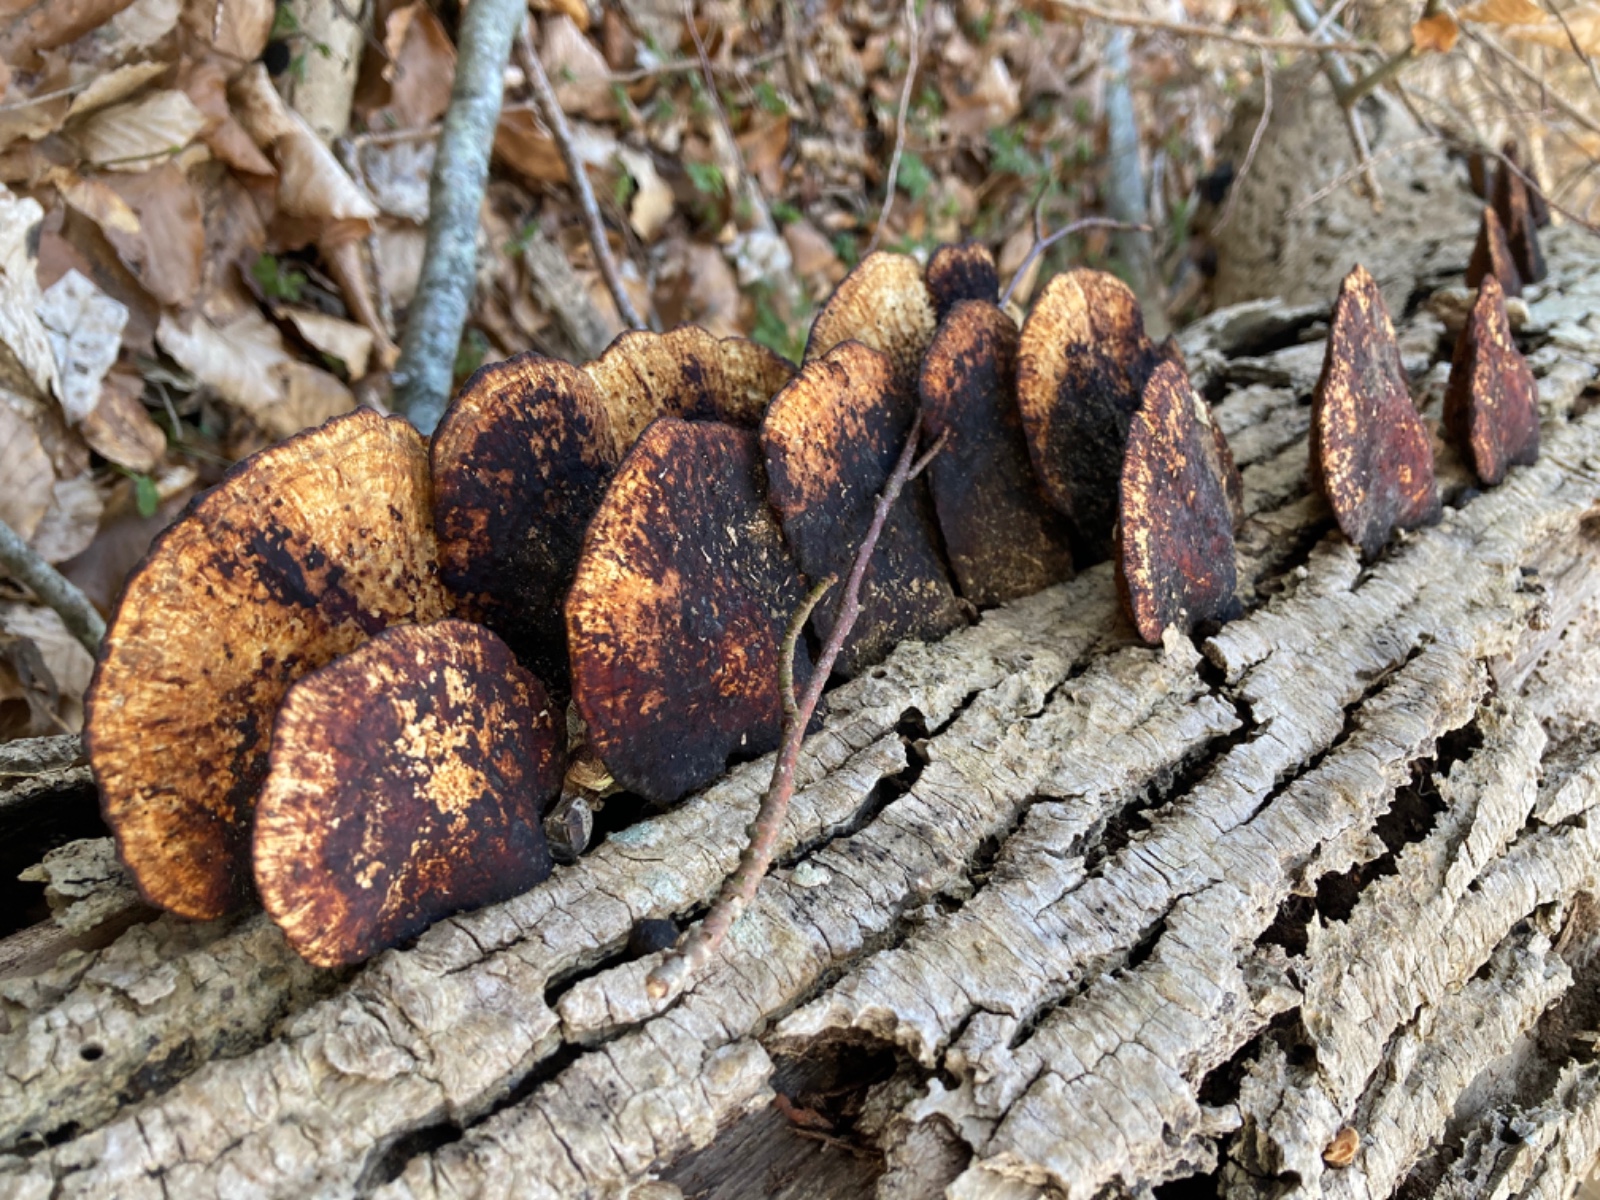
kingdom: Fungi
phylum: Basidiomycota
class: Agaricomycetes
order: Polyporales
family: Polyporaceae
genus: Daedaleopsis
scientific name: Daedaleopsis confragosa
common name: rødmende læderporesvamp
